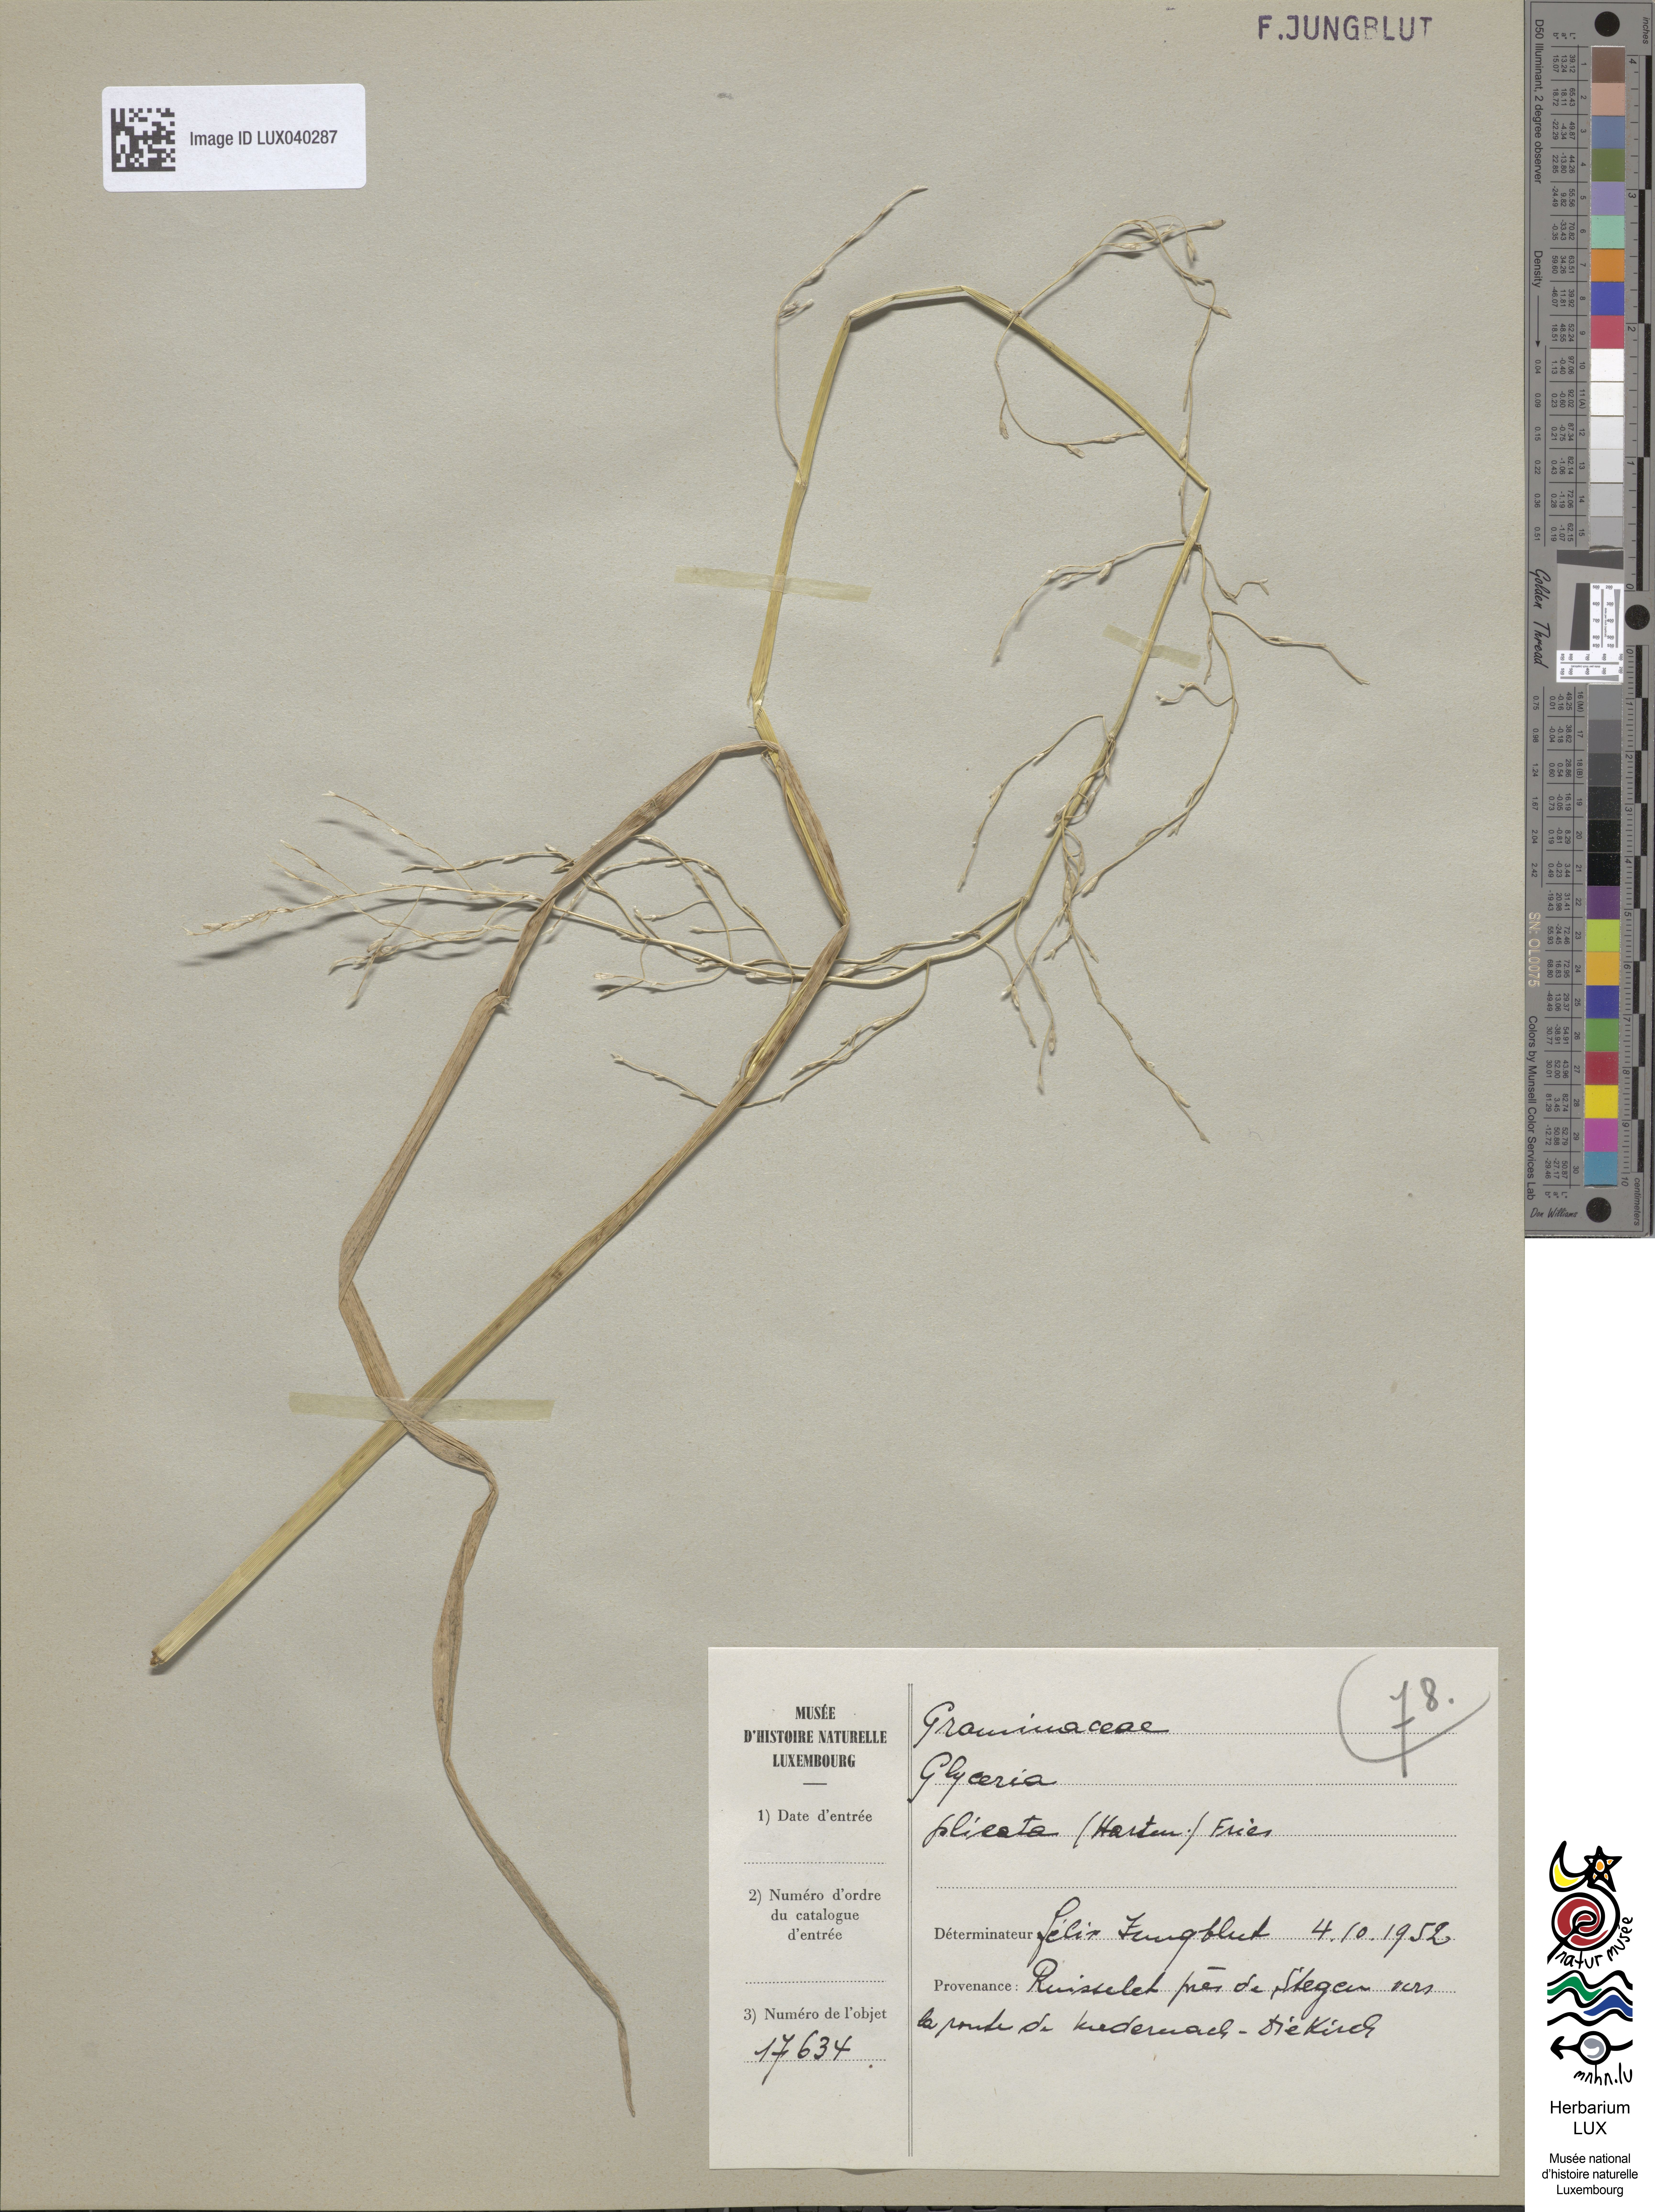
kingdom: Plantae
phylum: Tracheophyta
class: Liliopsida
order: Poales
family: Poaceae
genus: Glyceria
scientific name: Glyceria notata
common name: Plicate sweet-grass
